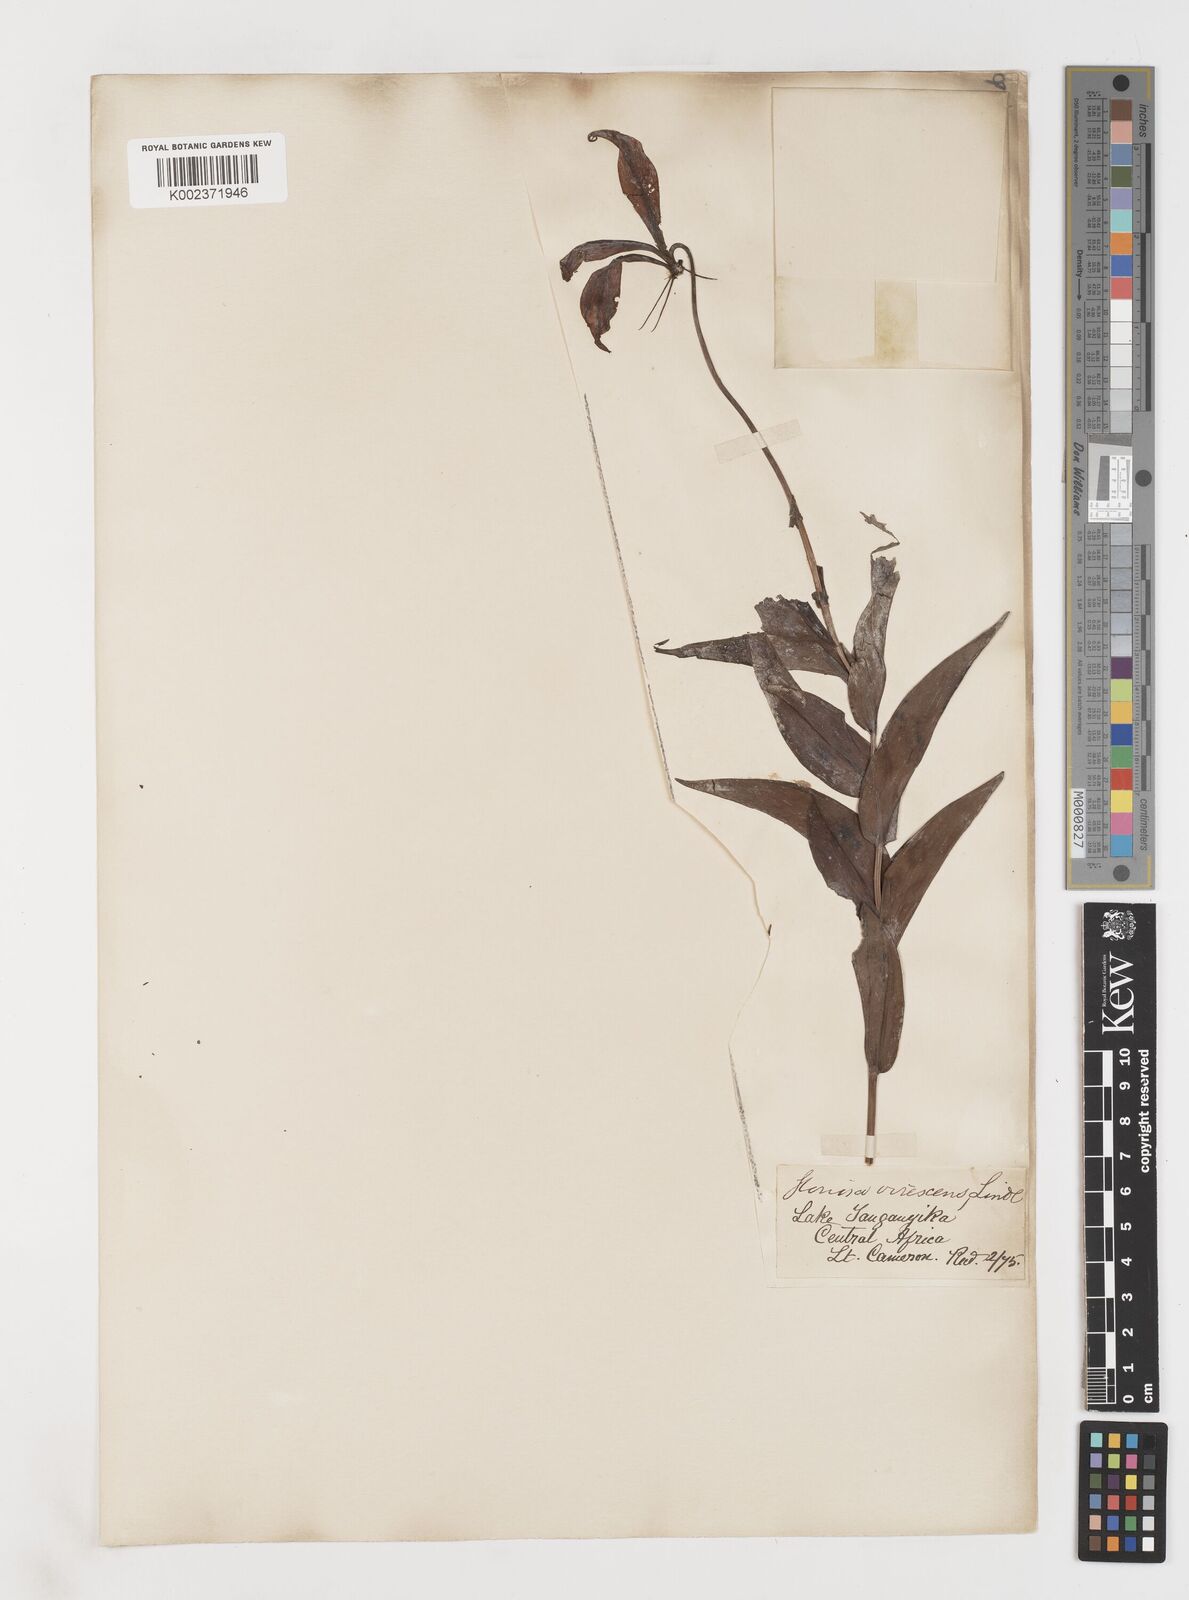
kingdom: Plantae
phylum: Tracheophyta
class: Liliopsida
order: Liliales
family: Colchicaceae
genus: Gloriosa
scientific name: Gloriosa simplex
